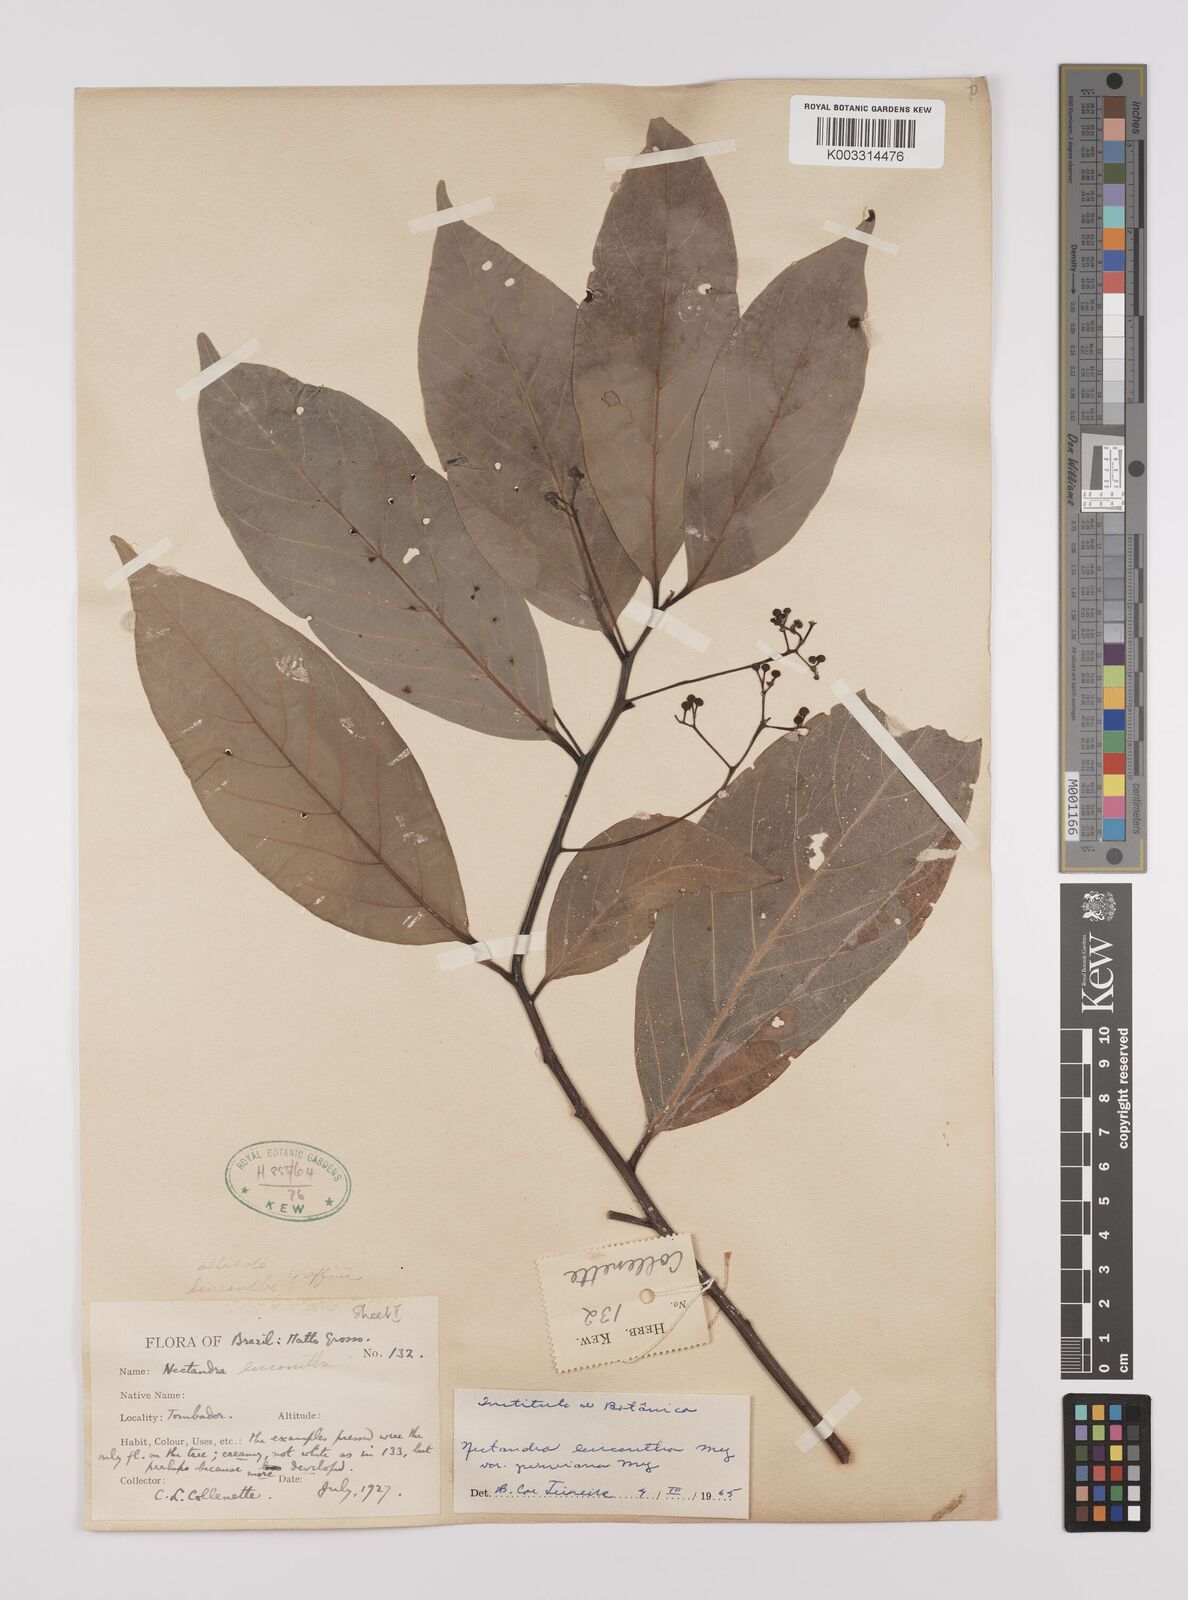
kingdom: Plantae
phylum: Tracheophyta
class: Magnoliopsida
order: Laurales
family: Lauraceae
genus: Nectandra
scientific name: Nectandra leucantha
